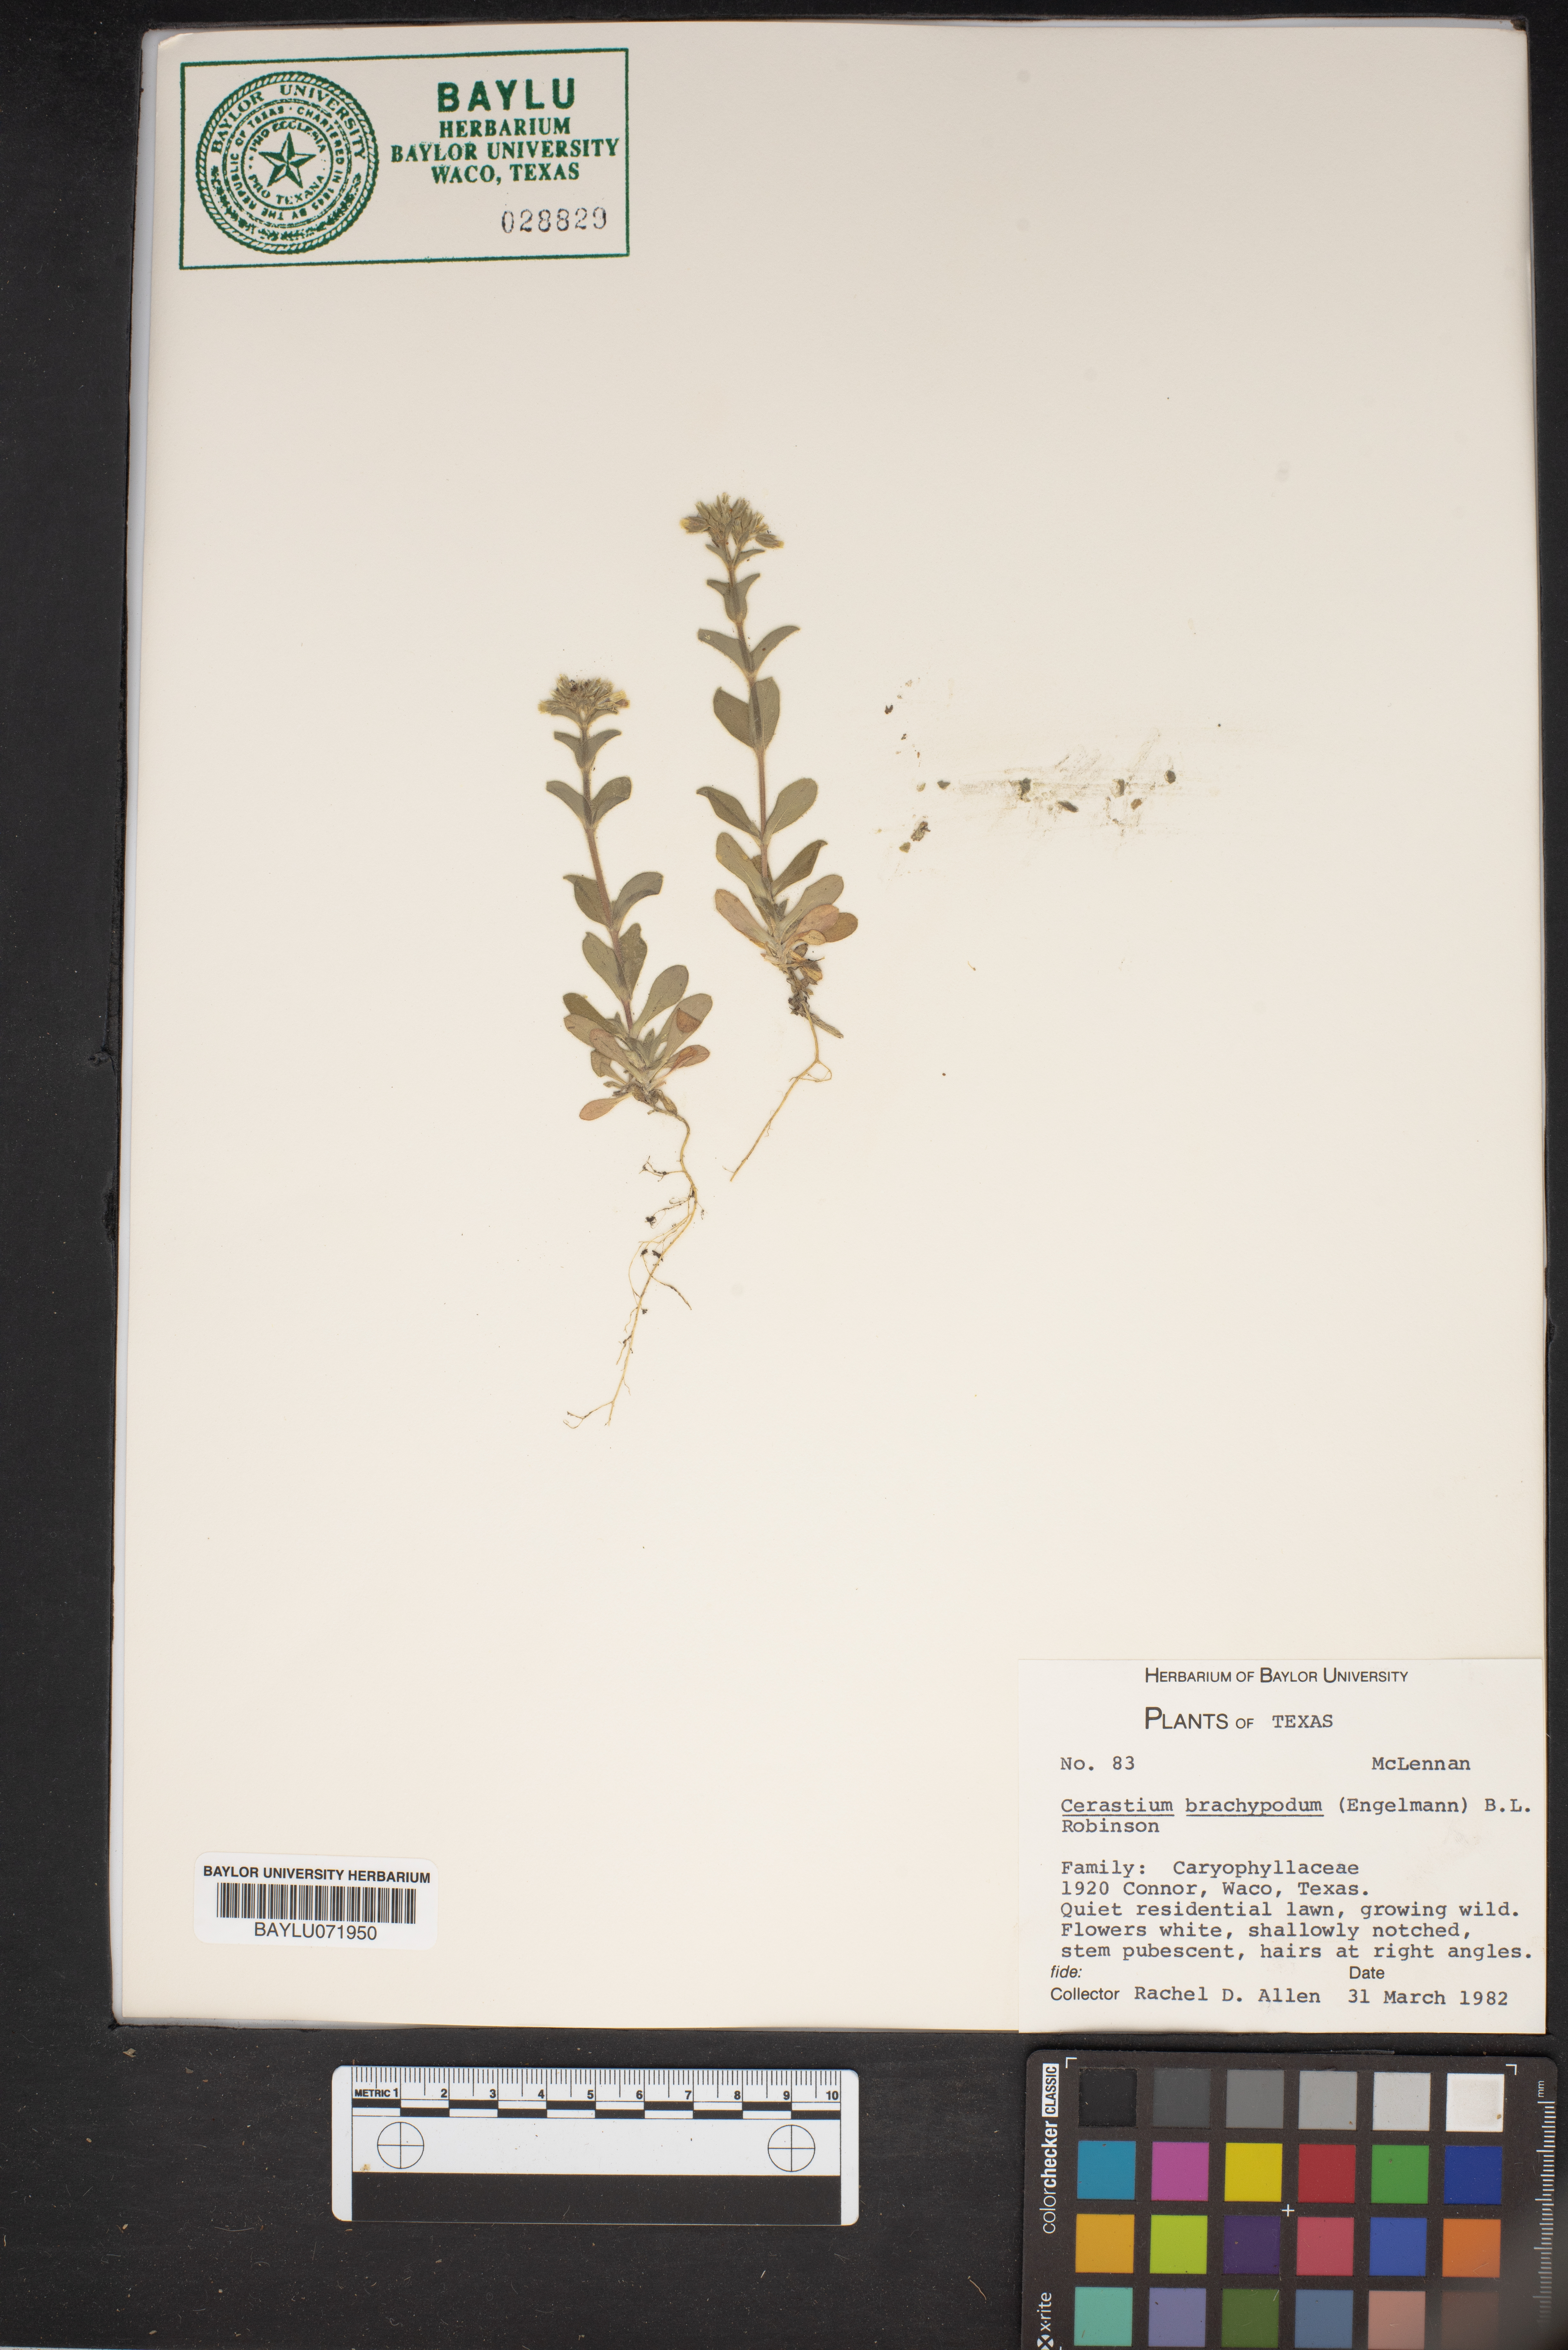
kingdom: Plantae
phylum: Tracheophyta
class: Magnoliopsida
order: Caryophyllales
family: Caryophyllaceae
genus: Cerastium
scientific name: Cerastium brachypodum
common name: Short-pedicelled nodding chickweed
